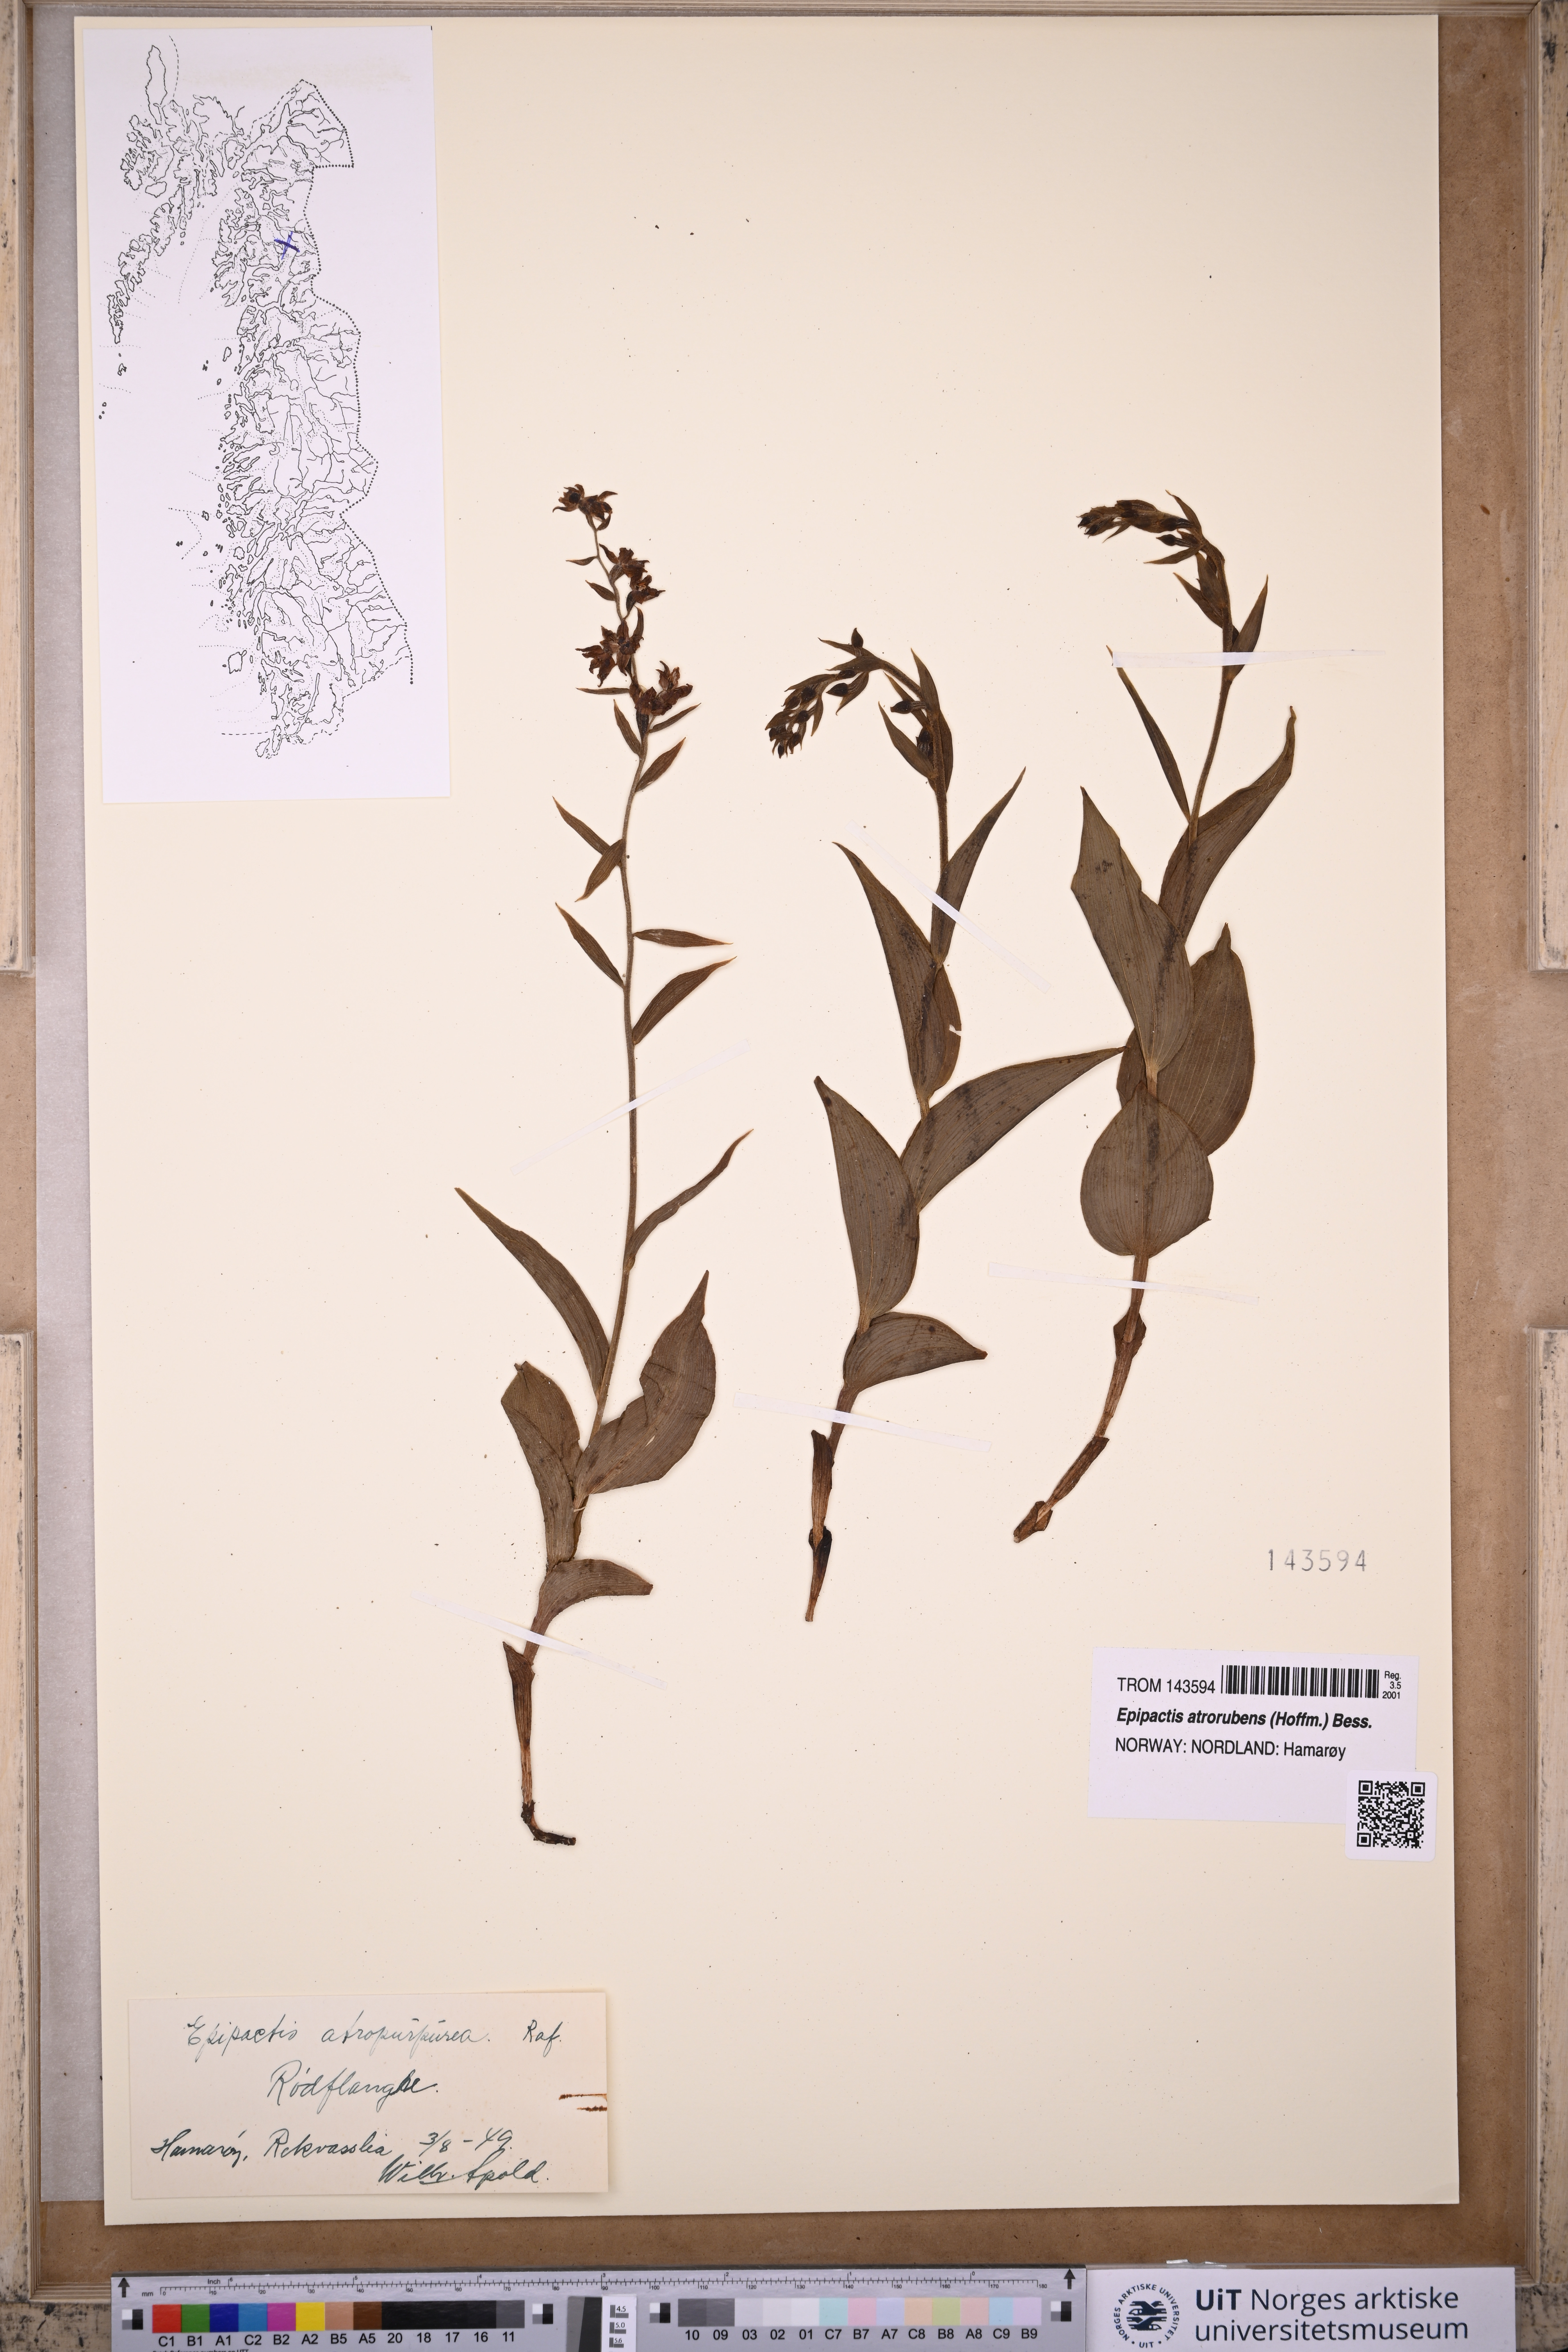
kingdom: Plantae
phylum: Tracheophyta
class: Liliopsida
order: Asparagales
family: Orchidaceae
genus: Epipactis
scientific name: Epipactis atrorubens
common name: Dark-red helleborine
